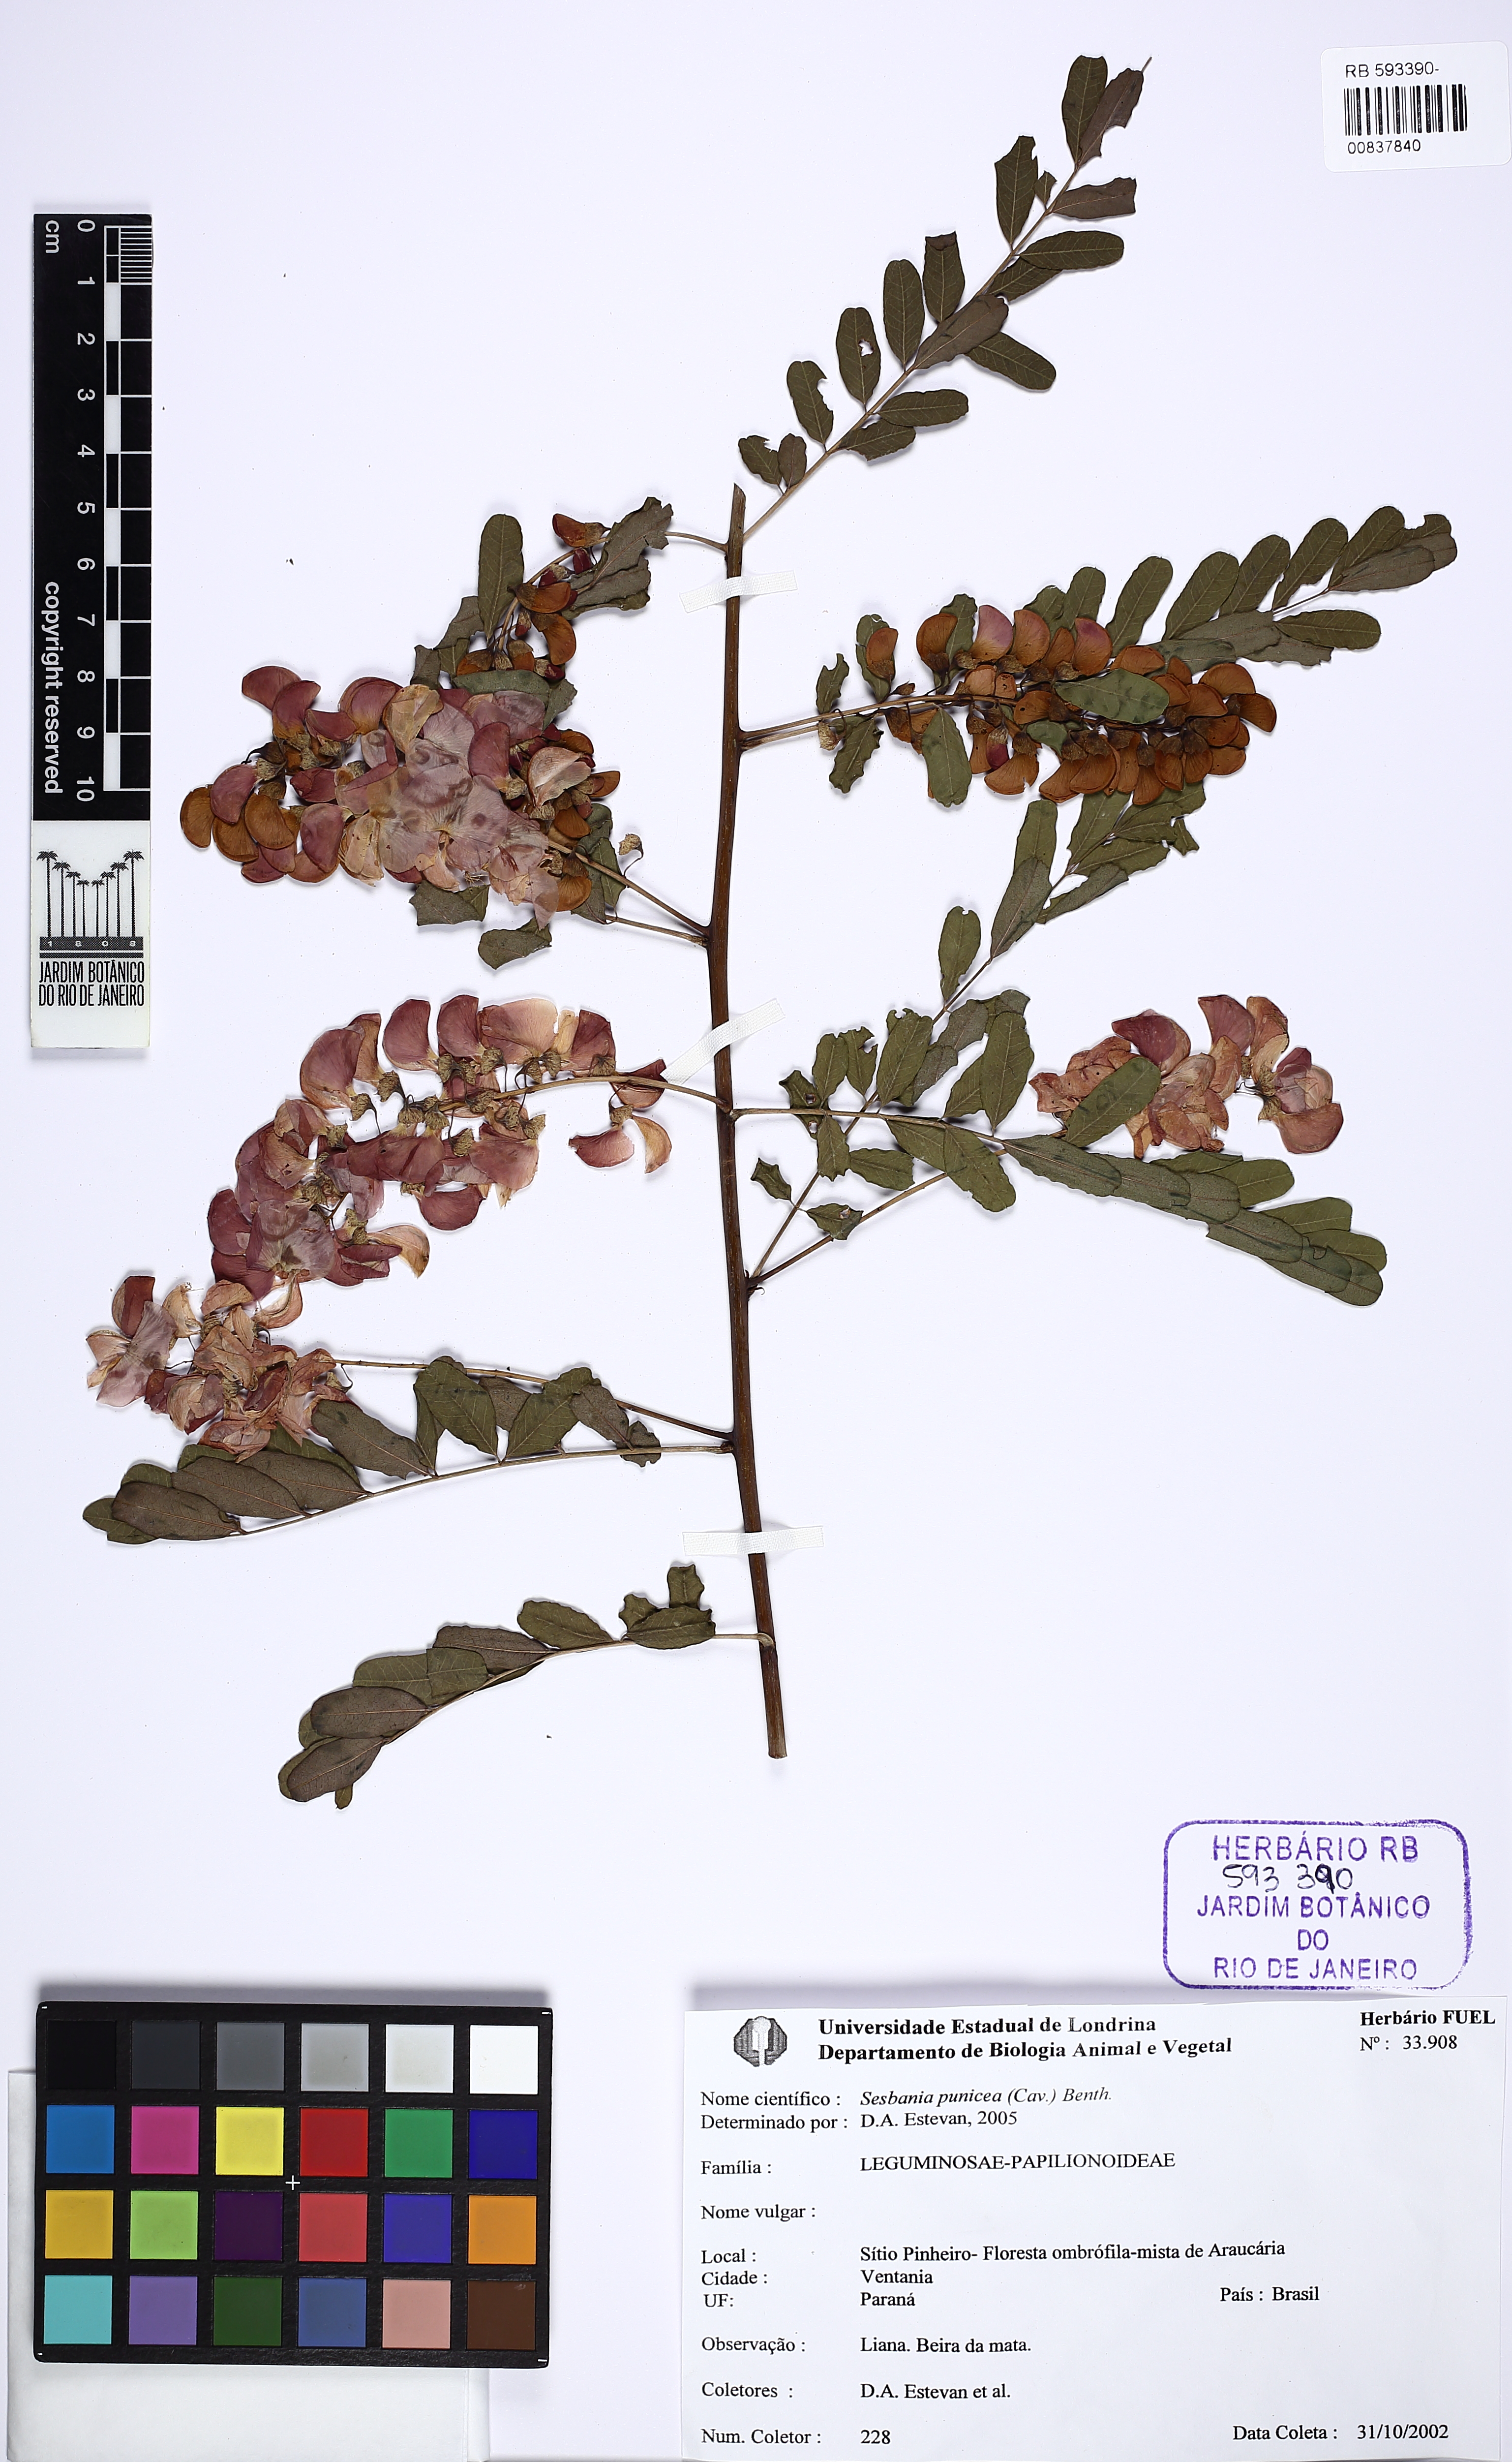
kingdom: Plantae
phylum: Tracheophyta
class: Magnoliopsida
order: Fabales
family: Fabaceae
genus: Sesbania
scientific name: Sesbania punicea
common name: Rattlebox
